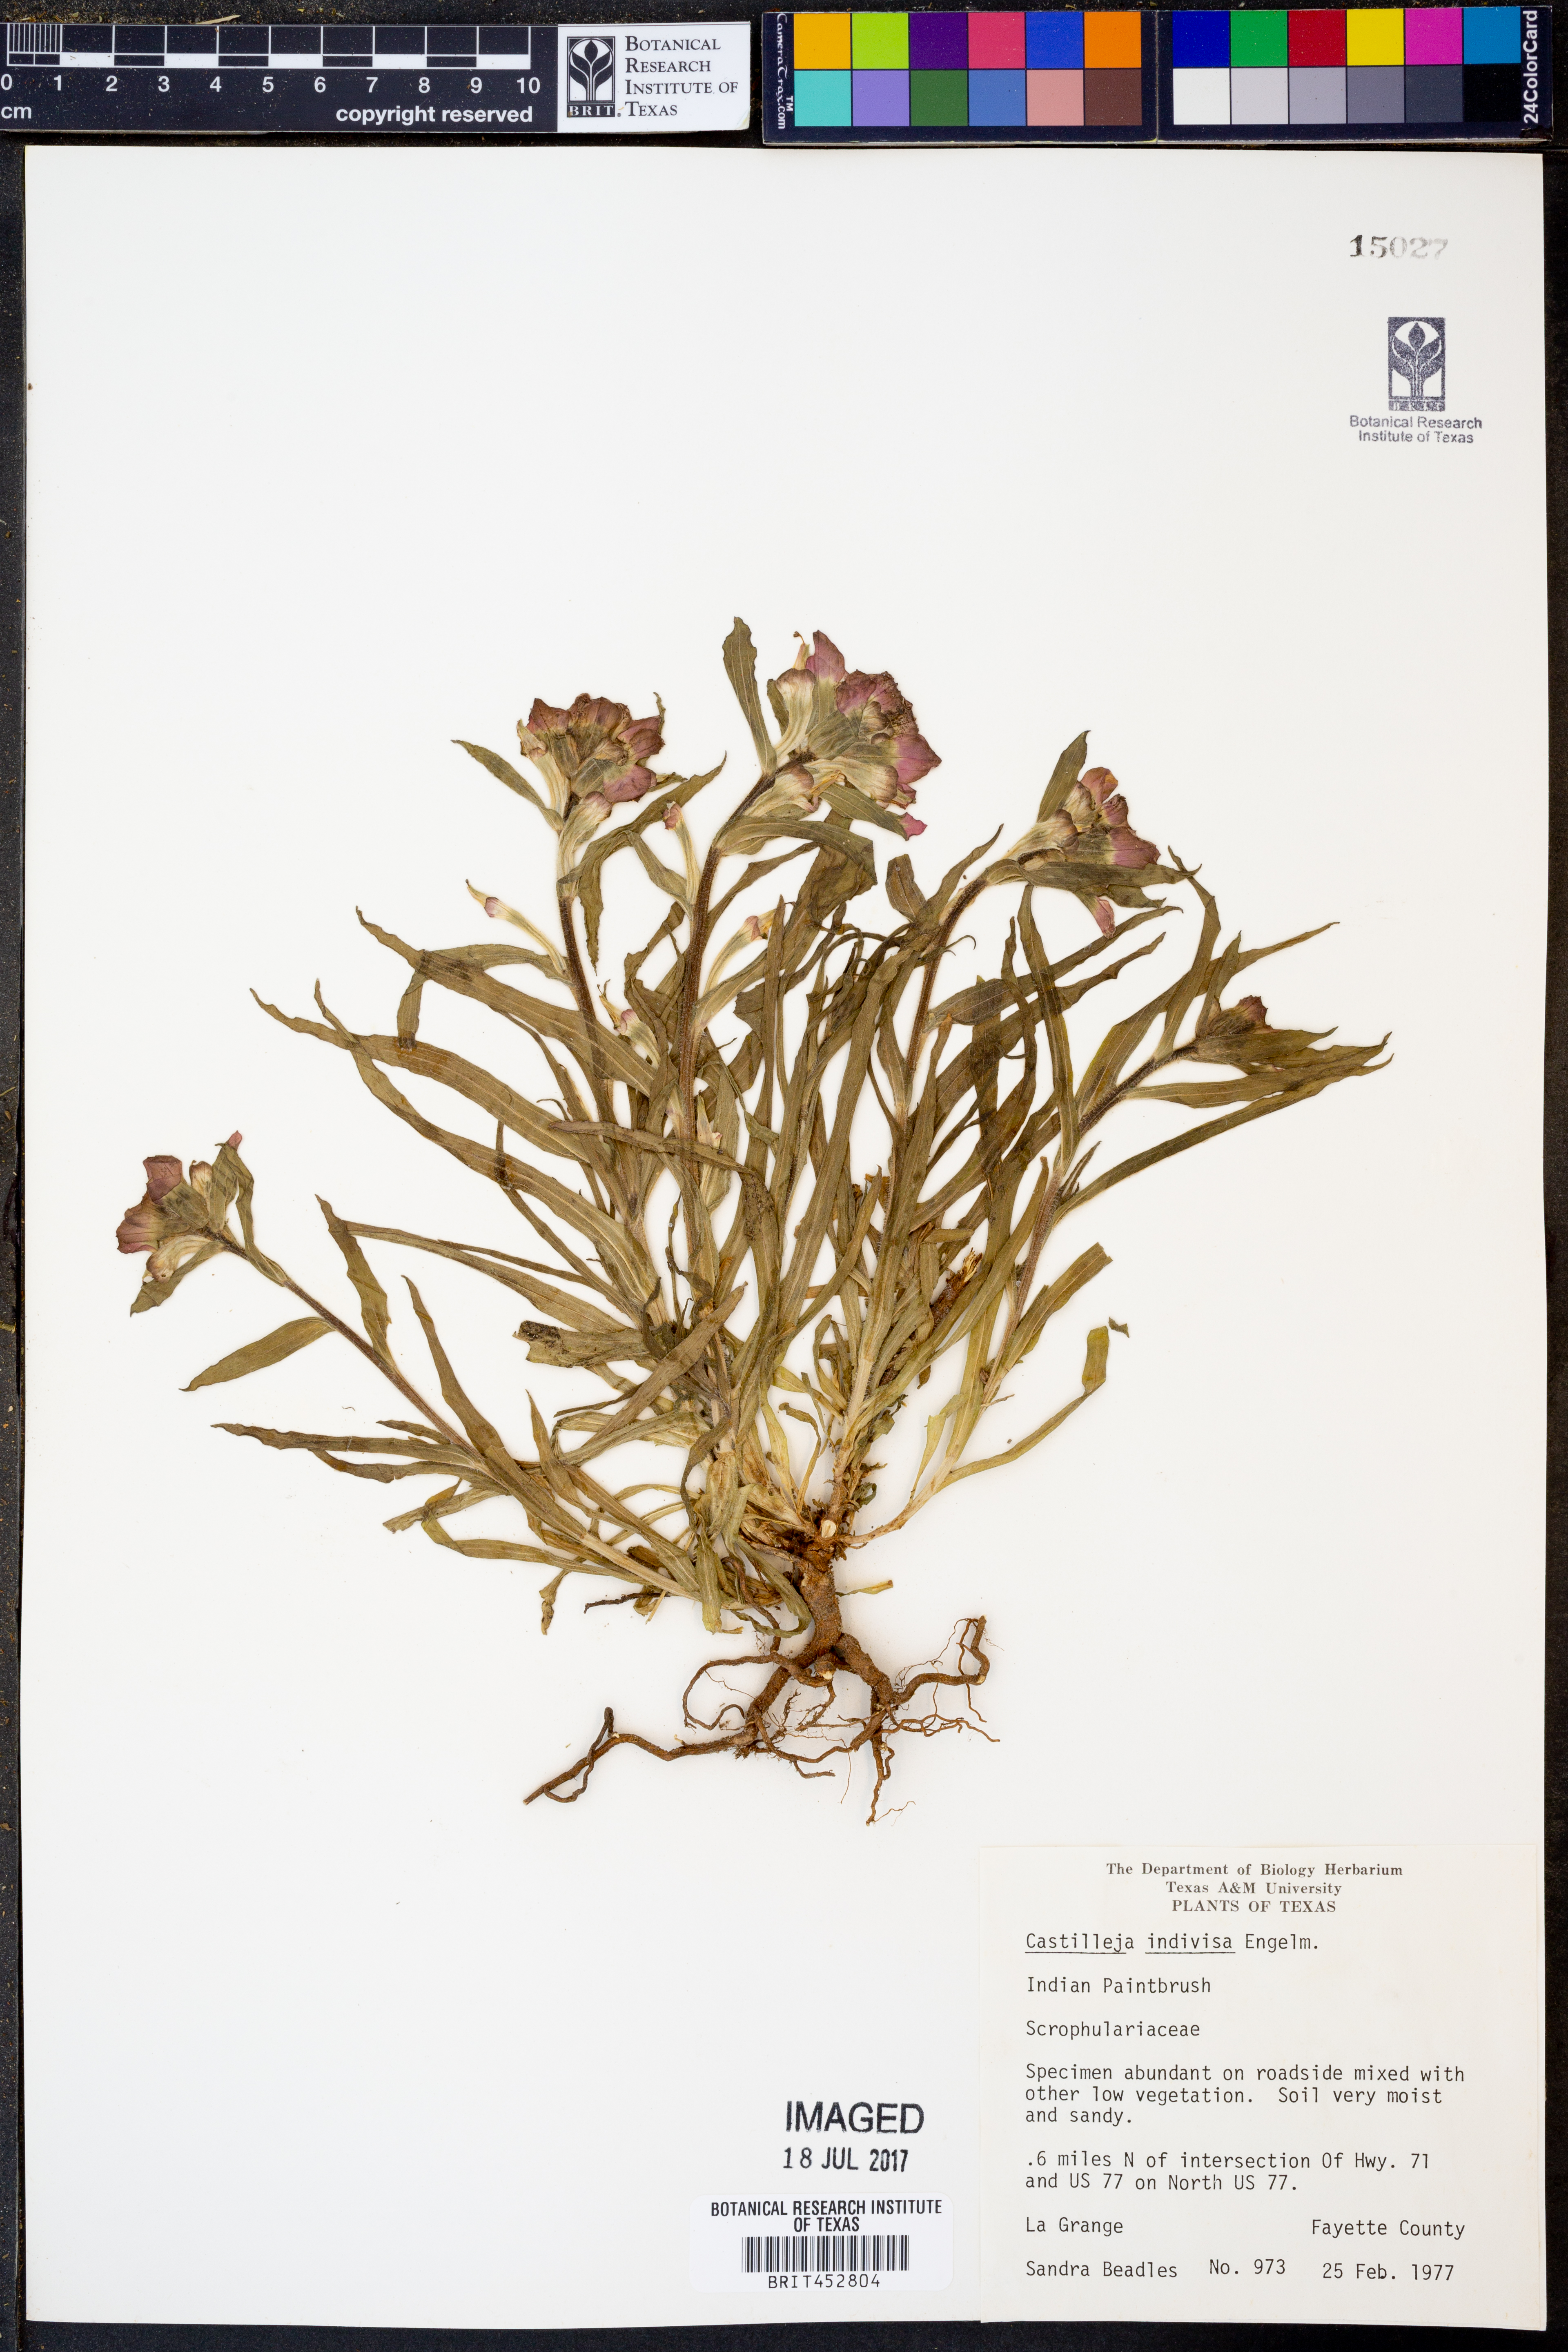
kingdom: Plantae
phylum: Tracheophyta
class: Magnoliopsida
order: Lamiales
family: Orobanchaceae
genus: Castilleja
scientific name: Castilleja indivisa
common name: Texas paintbrush
